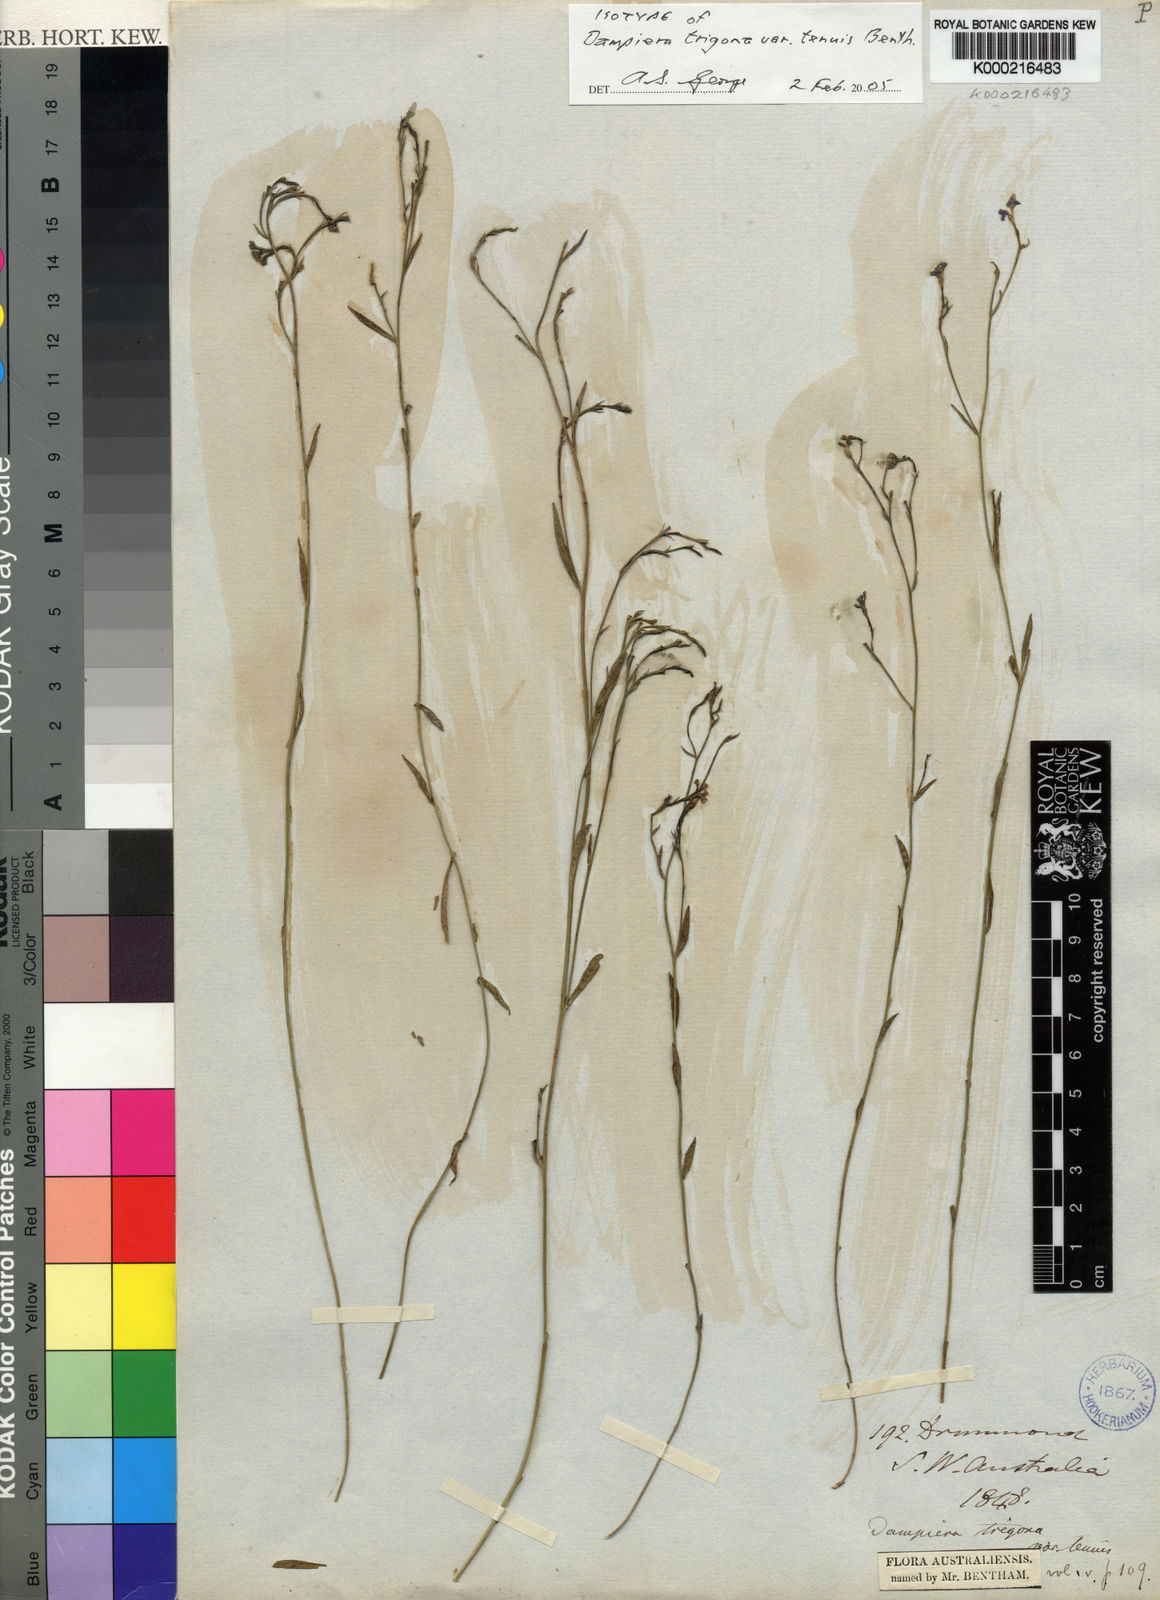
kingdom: Plantae
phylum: Tracheophyta
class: Magnoliopsida
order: Asterales
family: Goodeniaceae
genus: Dampiera
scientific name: Dampiera trigona
